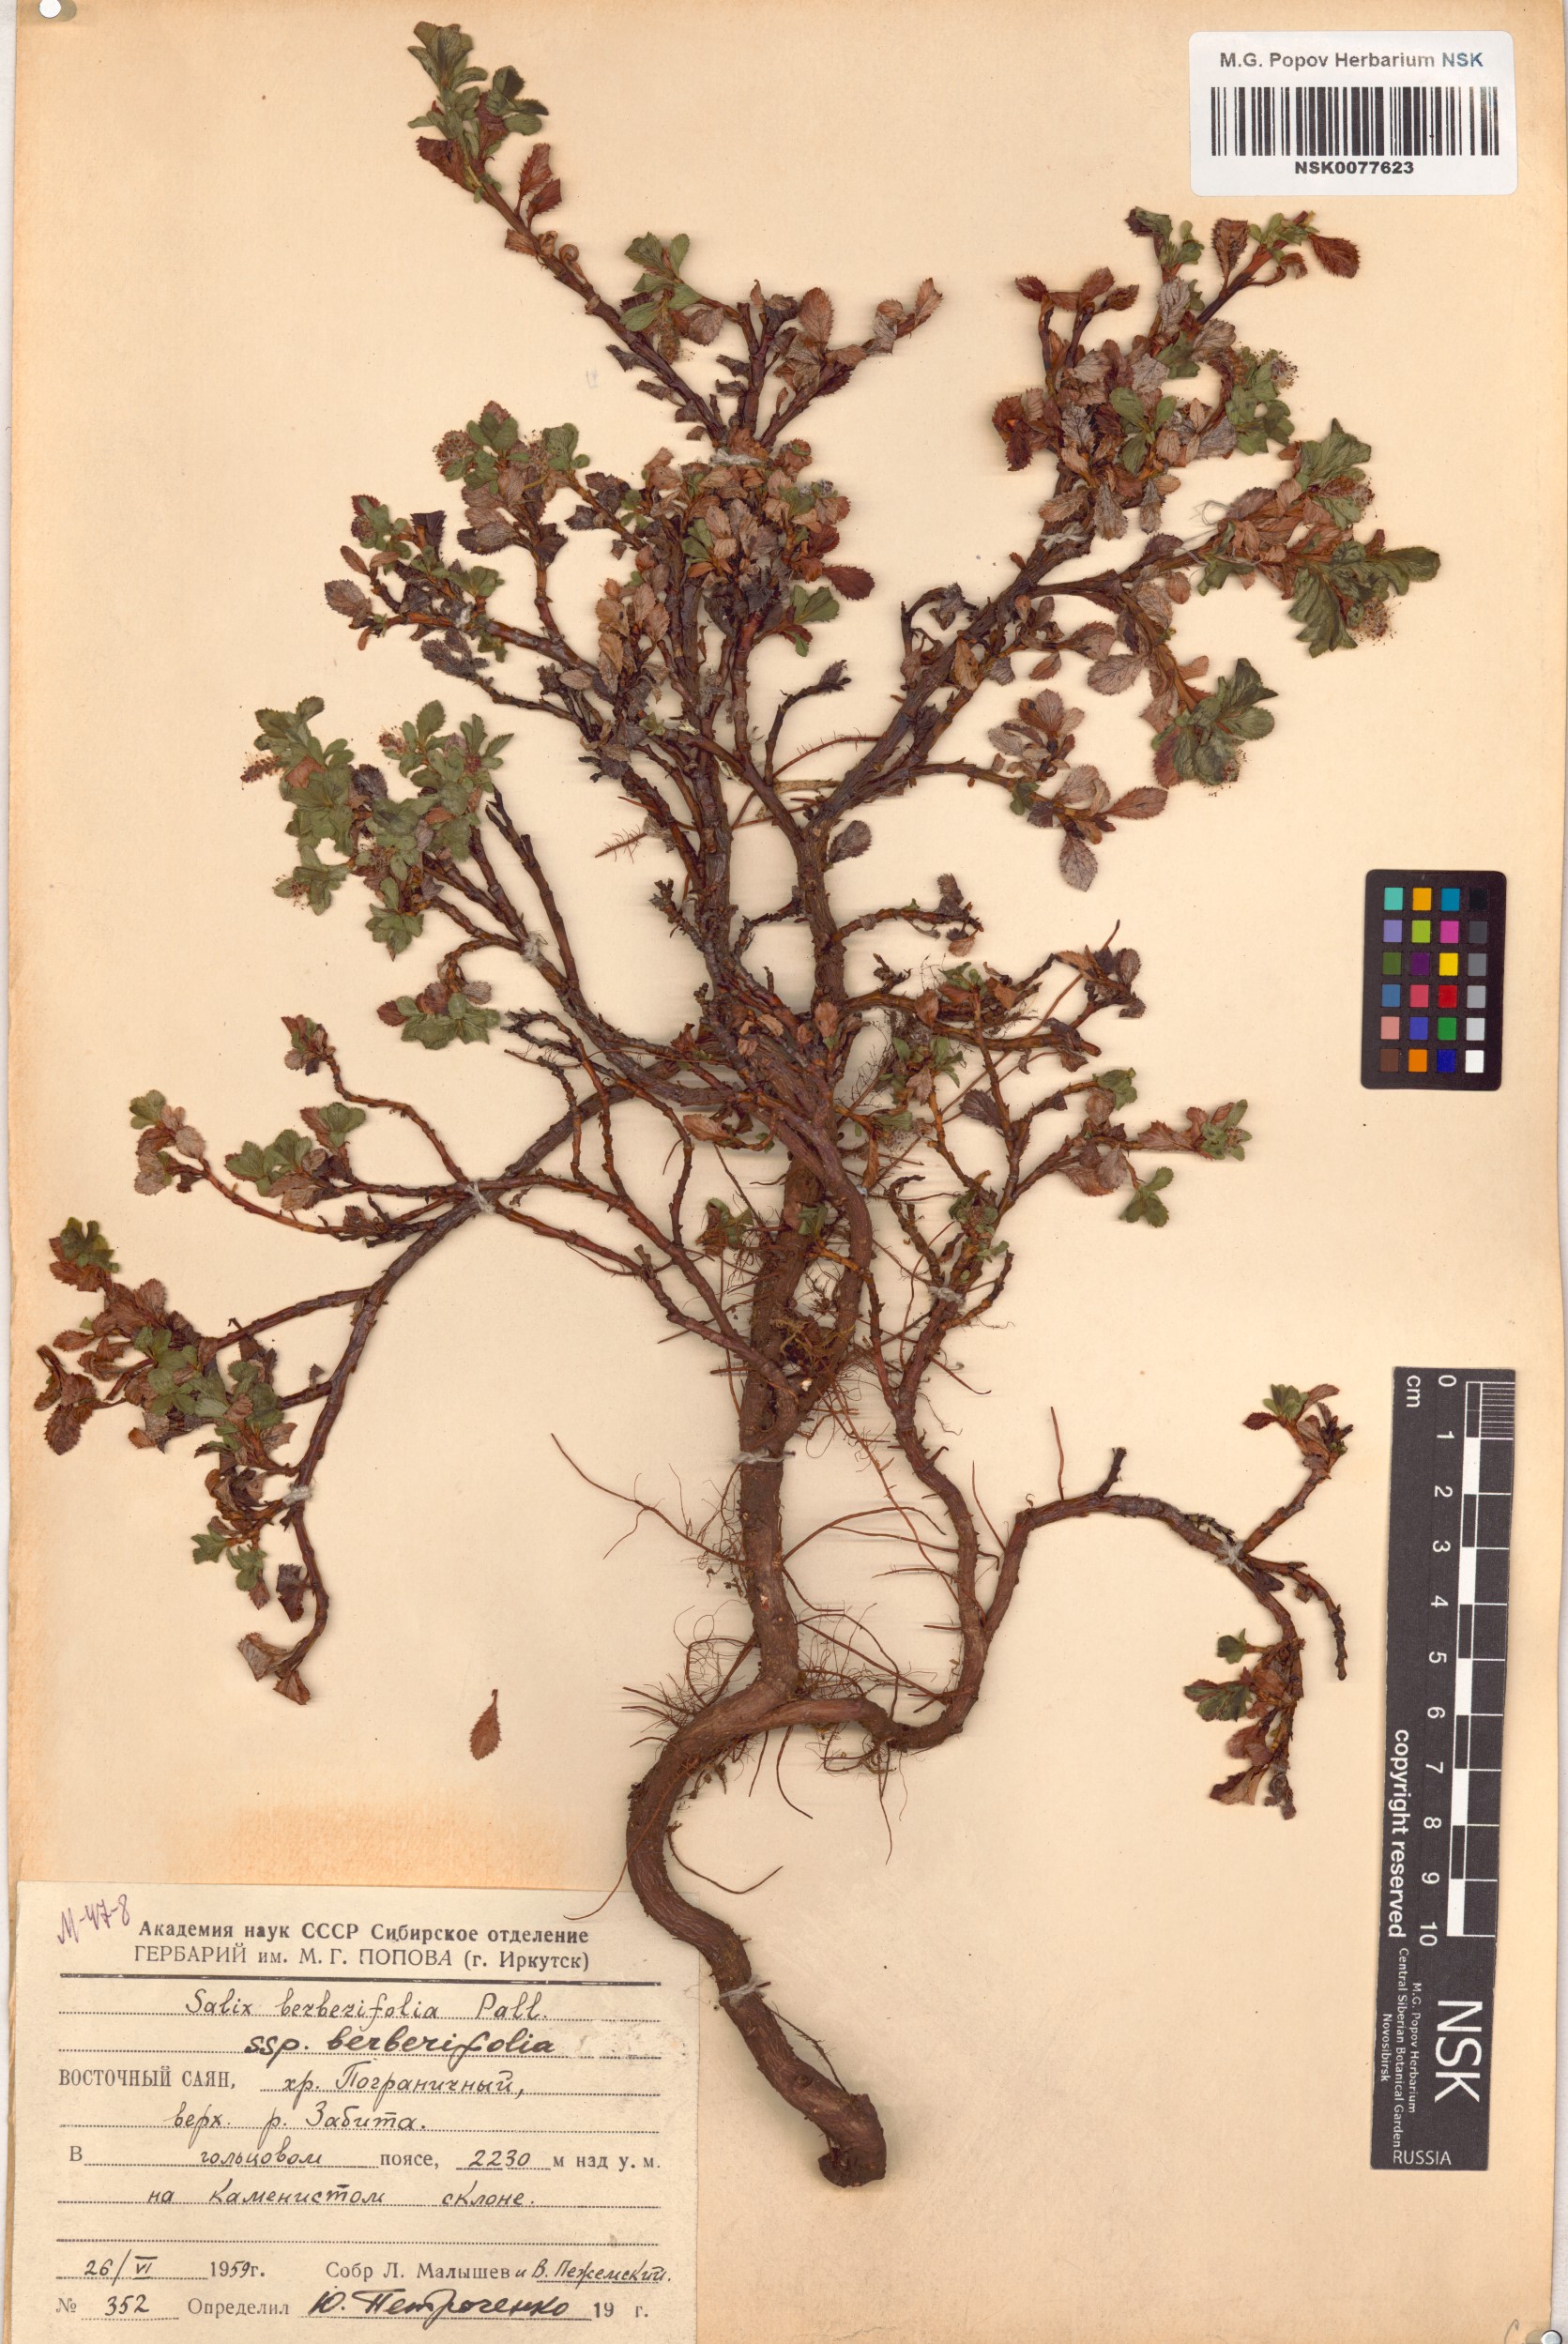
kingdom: Plantae
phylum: Tracheophyta
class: Magnoliopsida
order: Malpighiales
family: Salicaceae
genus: Salix
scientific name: Salix berberifolia
